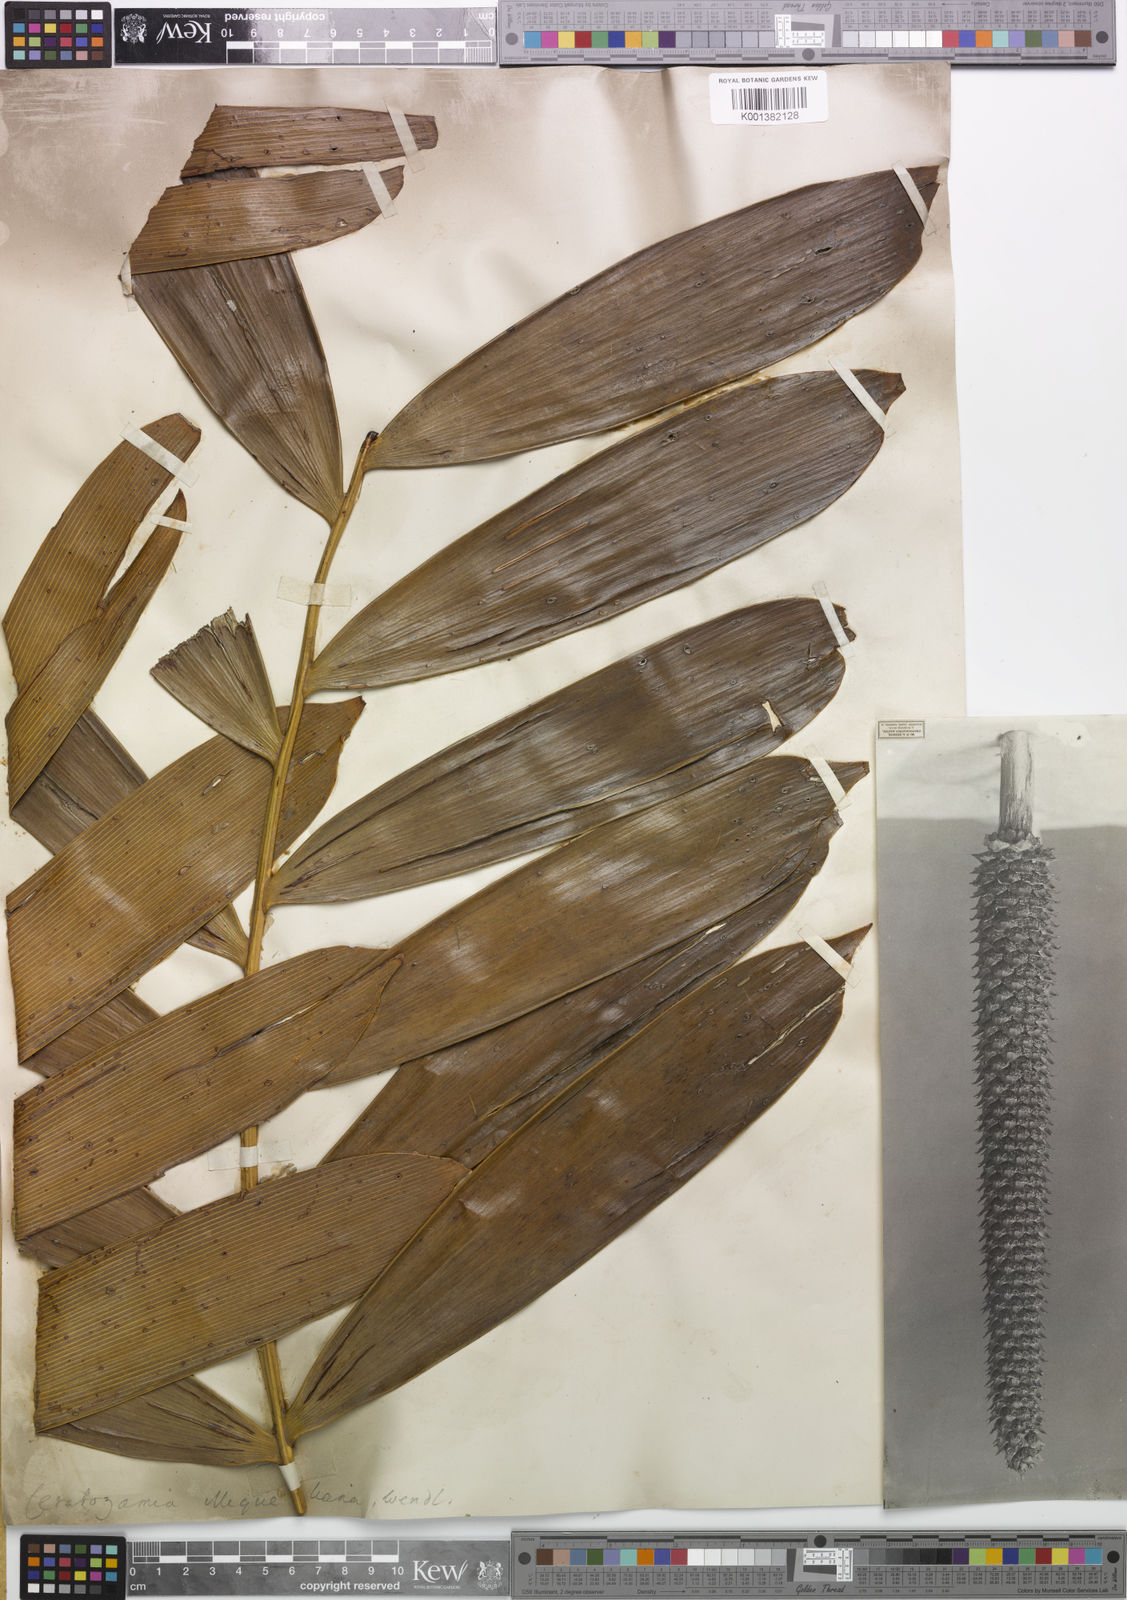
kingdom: Plantae
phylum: Tracheophyta
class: Cycadopsida
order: Cycadales
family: Zamiaceae
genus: Ceratozamia
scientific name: Ceratozamia miqueliana
